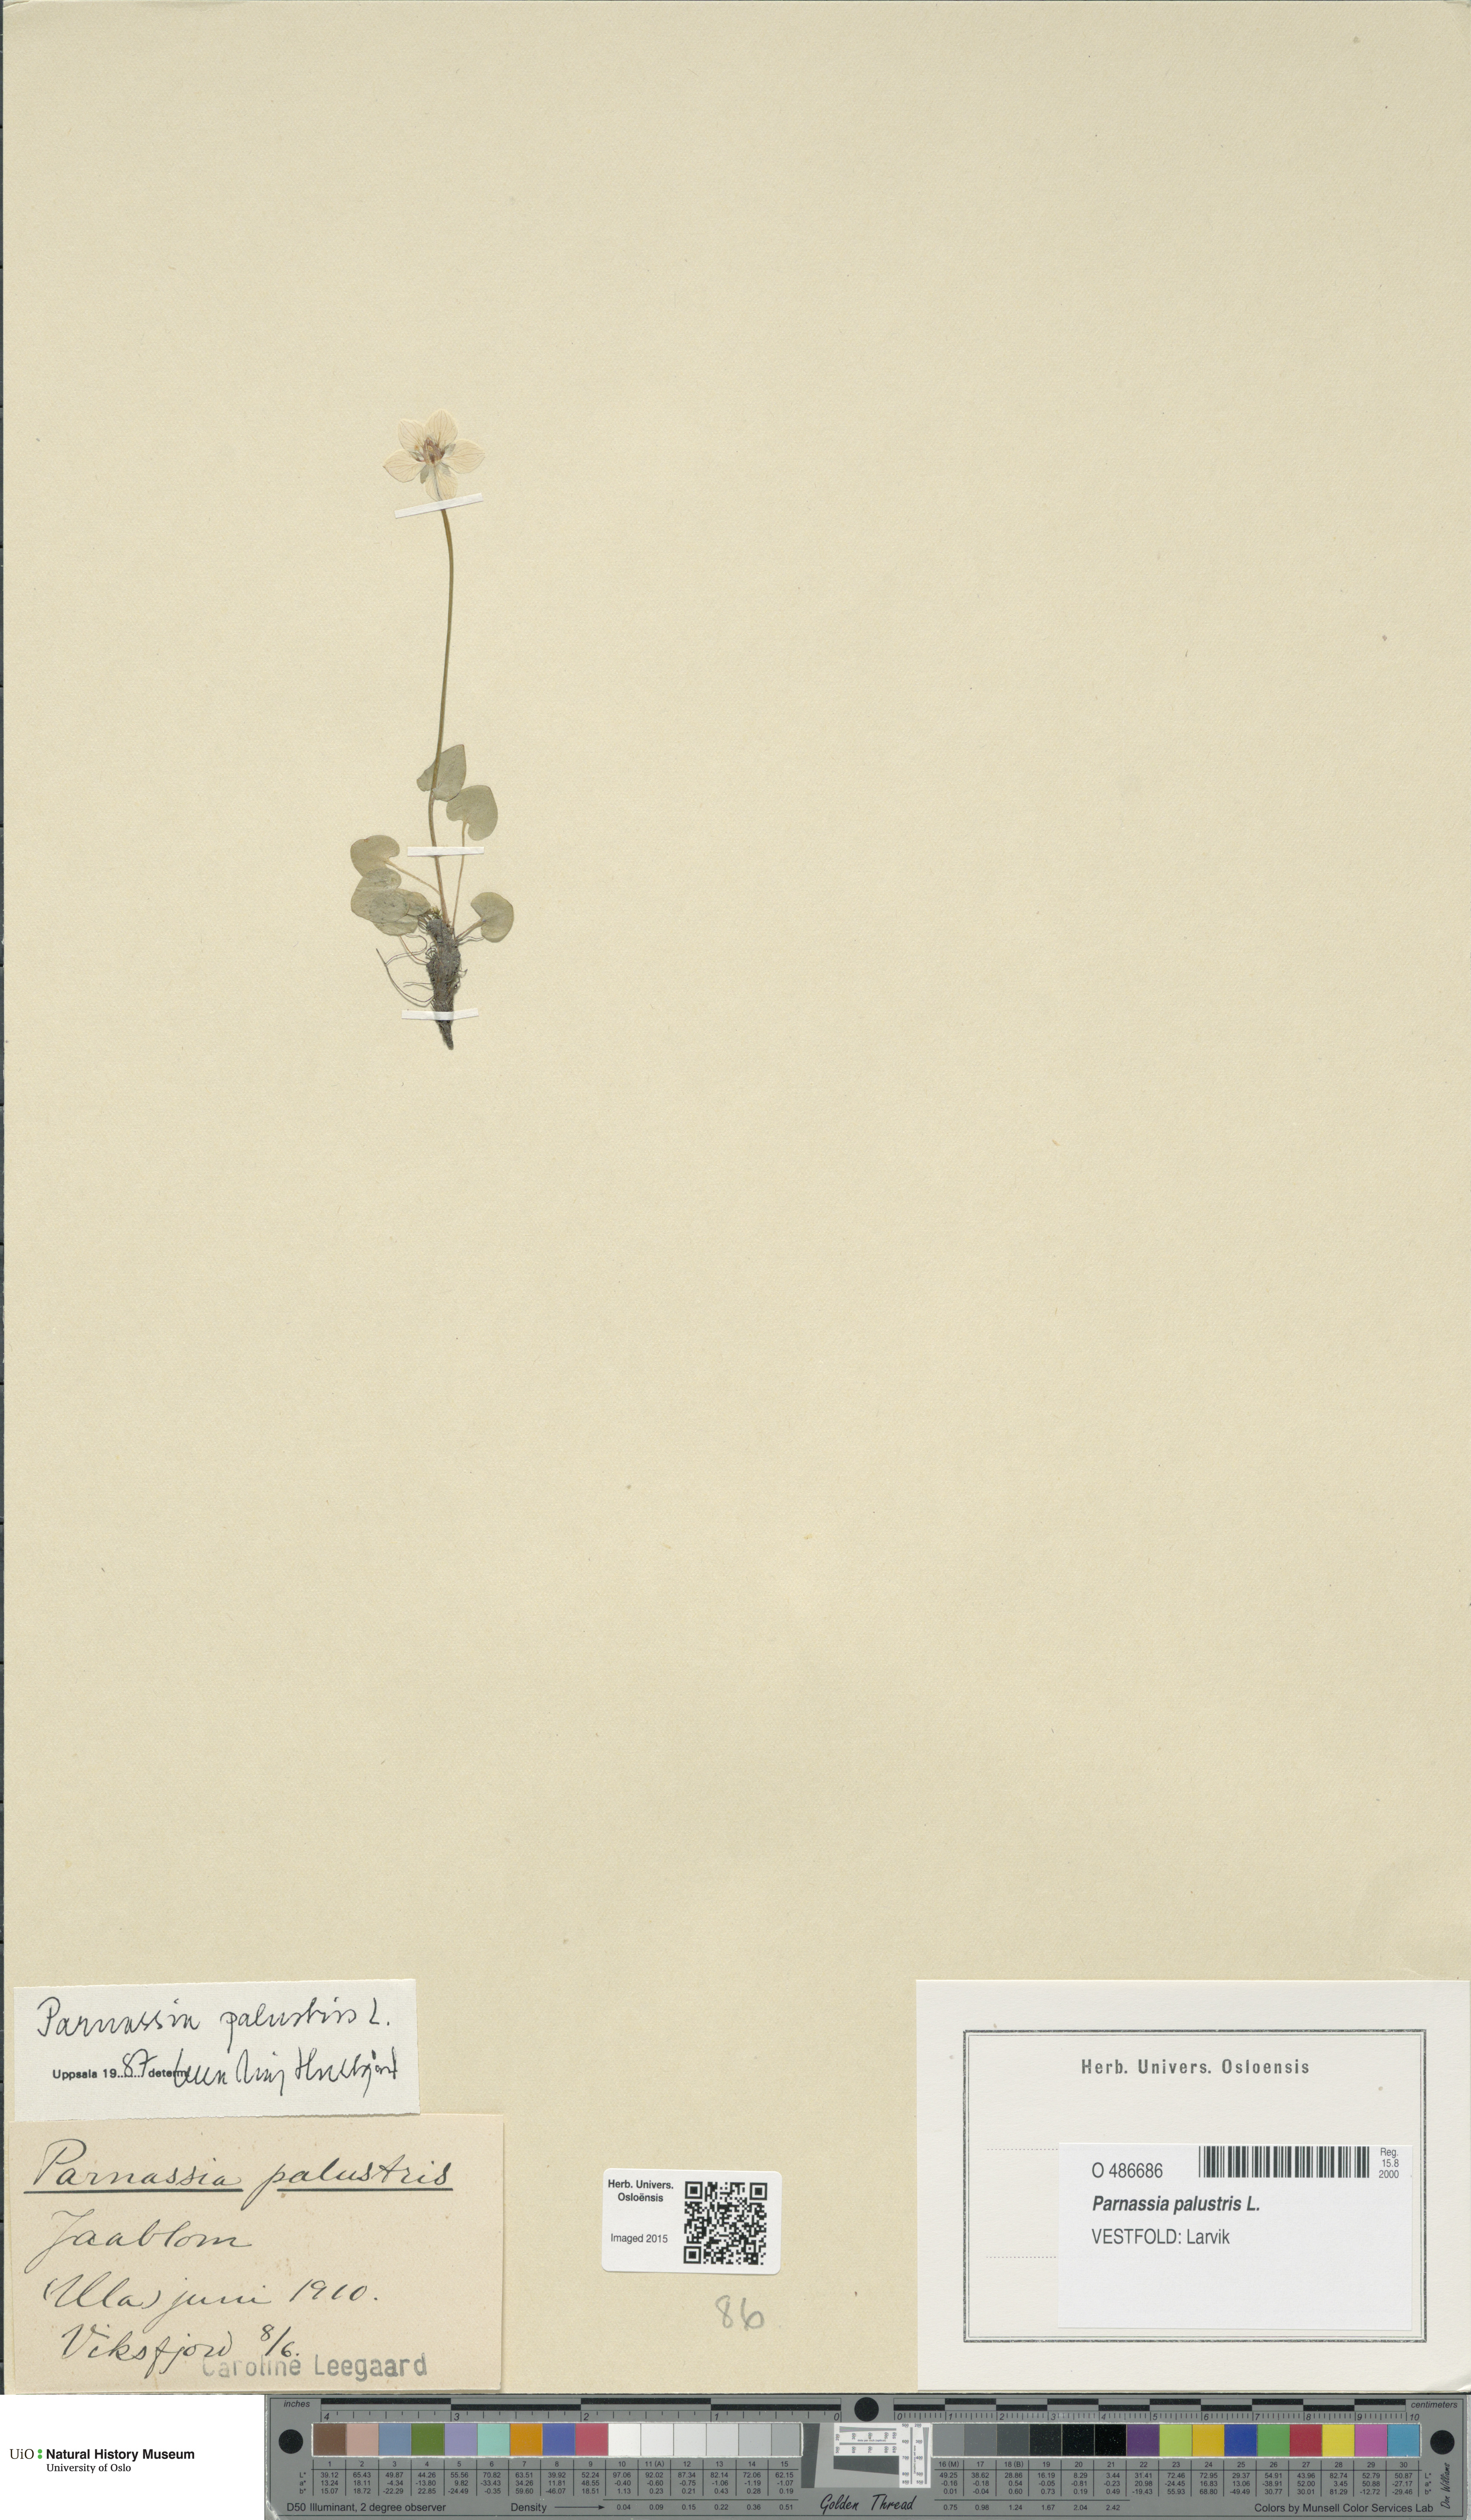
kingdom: Plantae
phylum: Tracheophyta
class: Magnoliopsida
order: Celastrales
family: Parnassiaceae
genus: Parnassia
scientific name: Parnassia palustris
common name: Grass-of-parnassus
